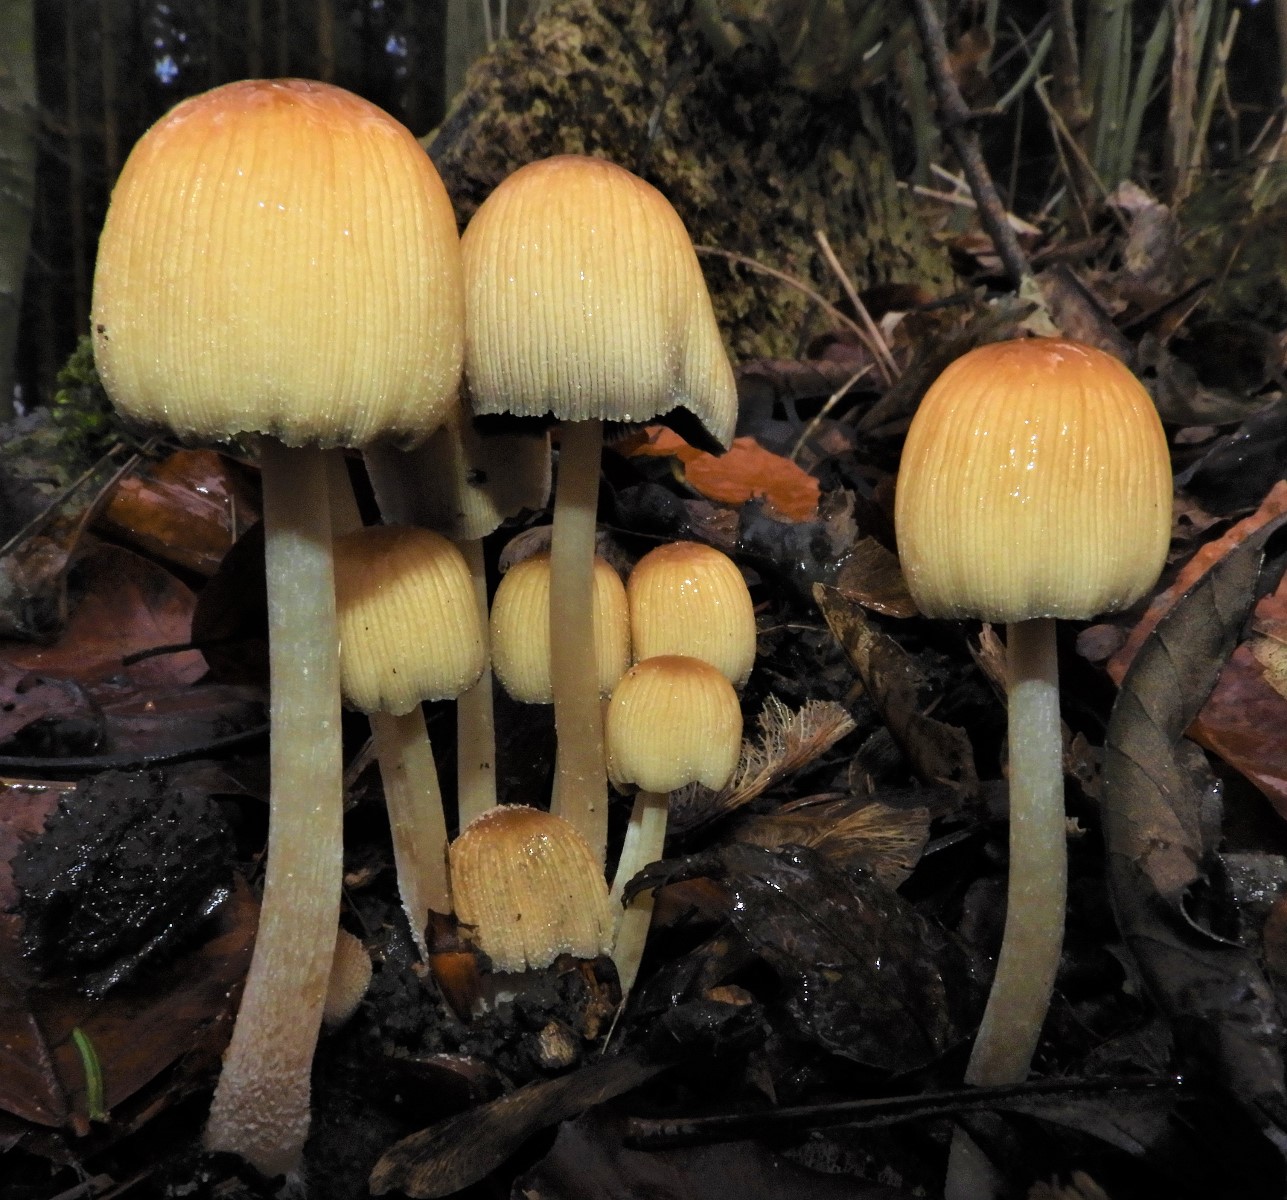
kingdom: Fungi
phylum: Basidiomycota
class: Agaricomycetes
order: Agaricales
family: Psathyrellaceae
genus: Coprinellus
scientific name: Coprinellus micaceus
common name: glimmer-blækhat
